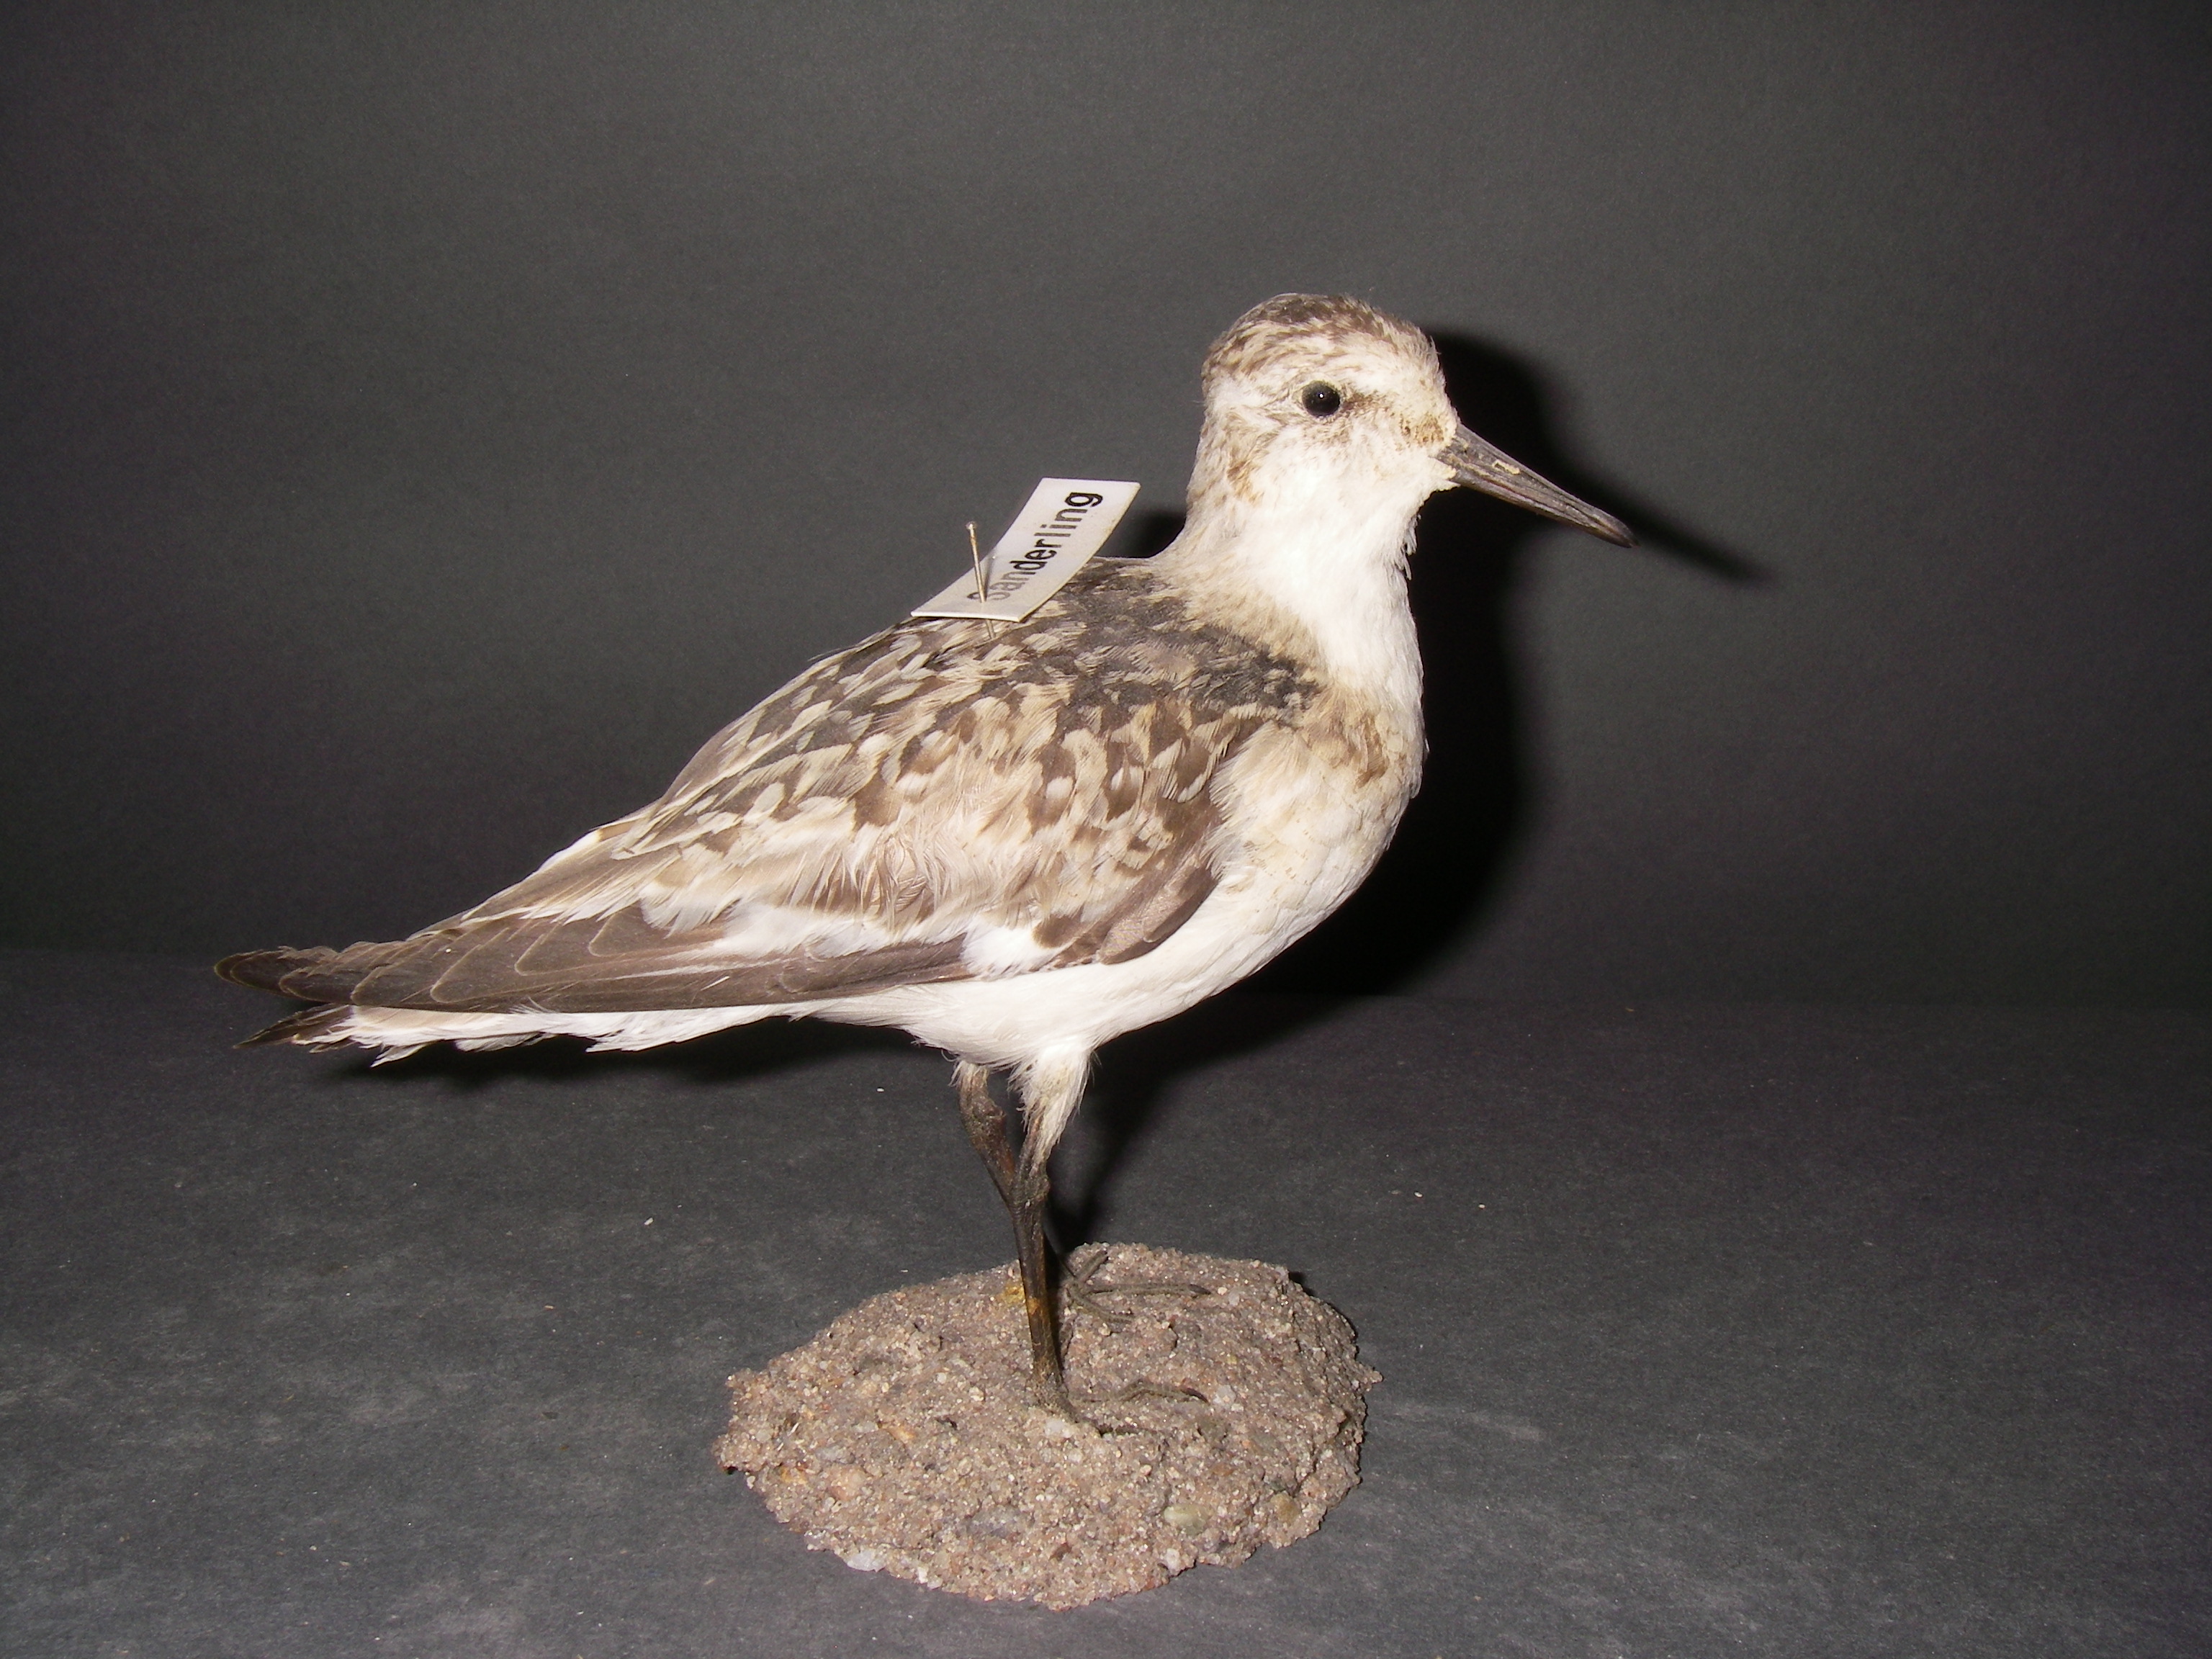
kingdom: Animalia
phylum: Chordata
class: Aves
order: Charadriiformes
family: Scolopacidae
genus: Calidris
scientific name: Calidris alba
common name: Sanderling
